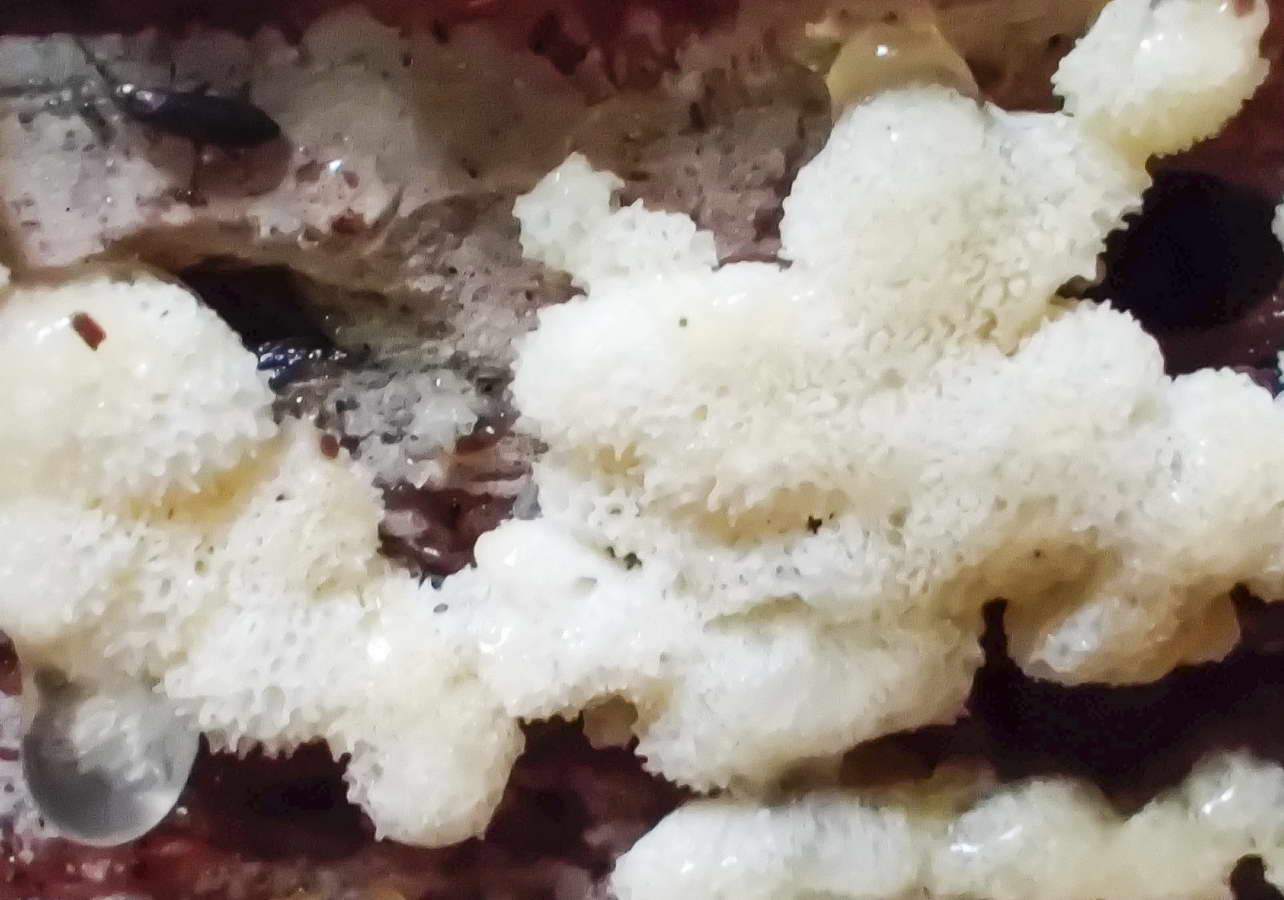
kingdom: Protozoa
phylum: Mycetozoa
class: Protosteliomycetes
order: Ceratiomyxales
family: Ceratiomyxaceae
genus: Ceratiomyxa
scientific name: Ceratiomyxa fruticulosa
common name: Honeycomb coral slime mold
